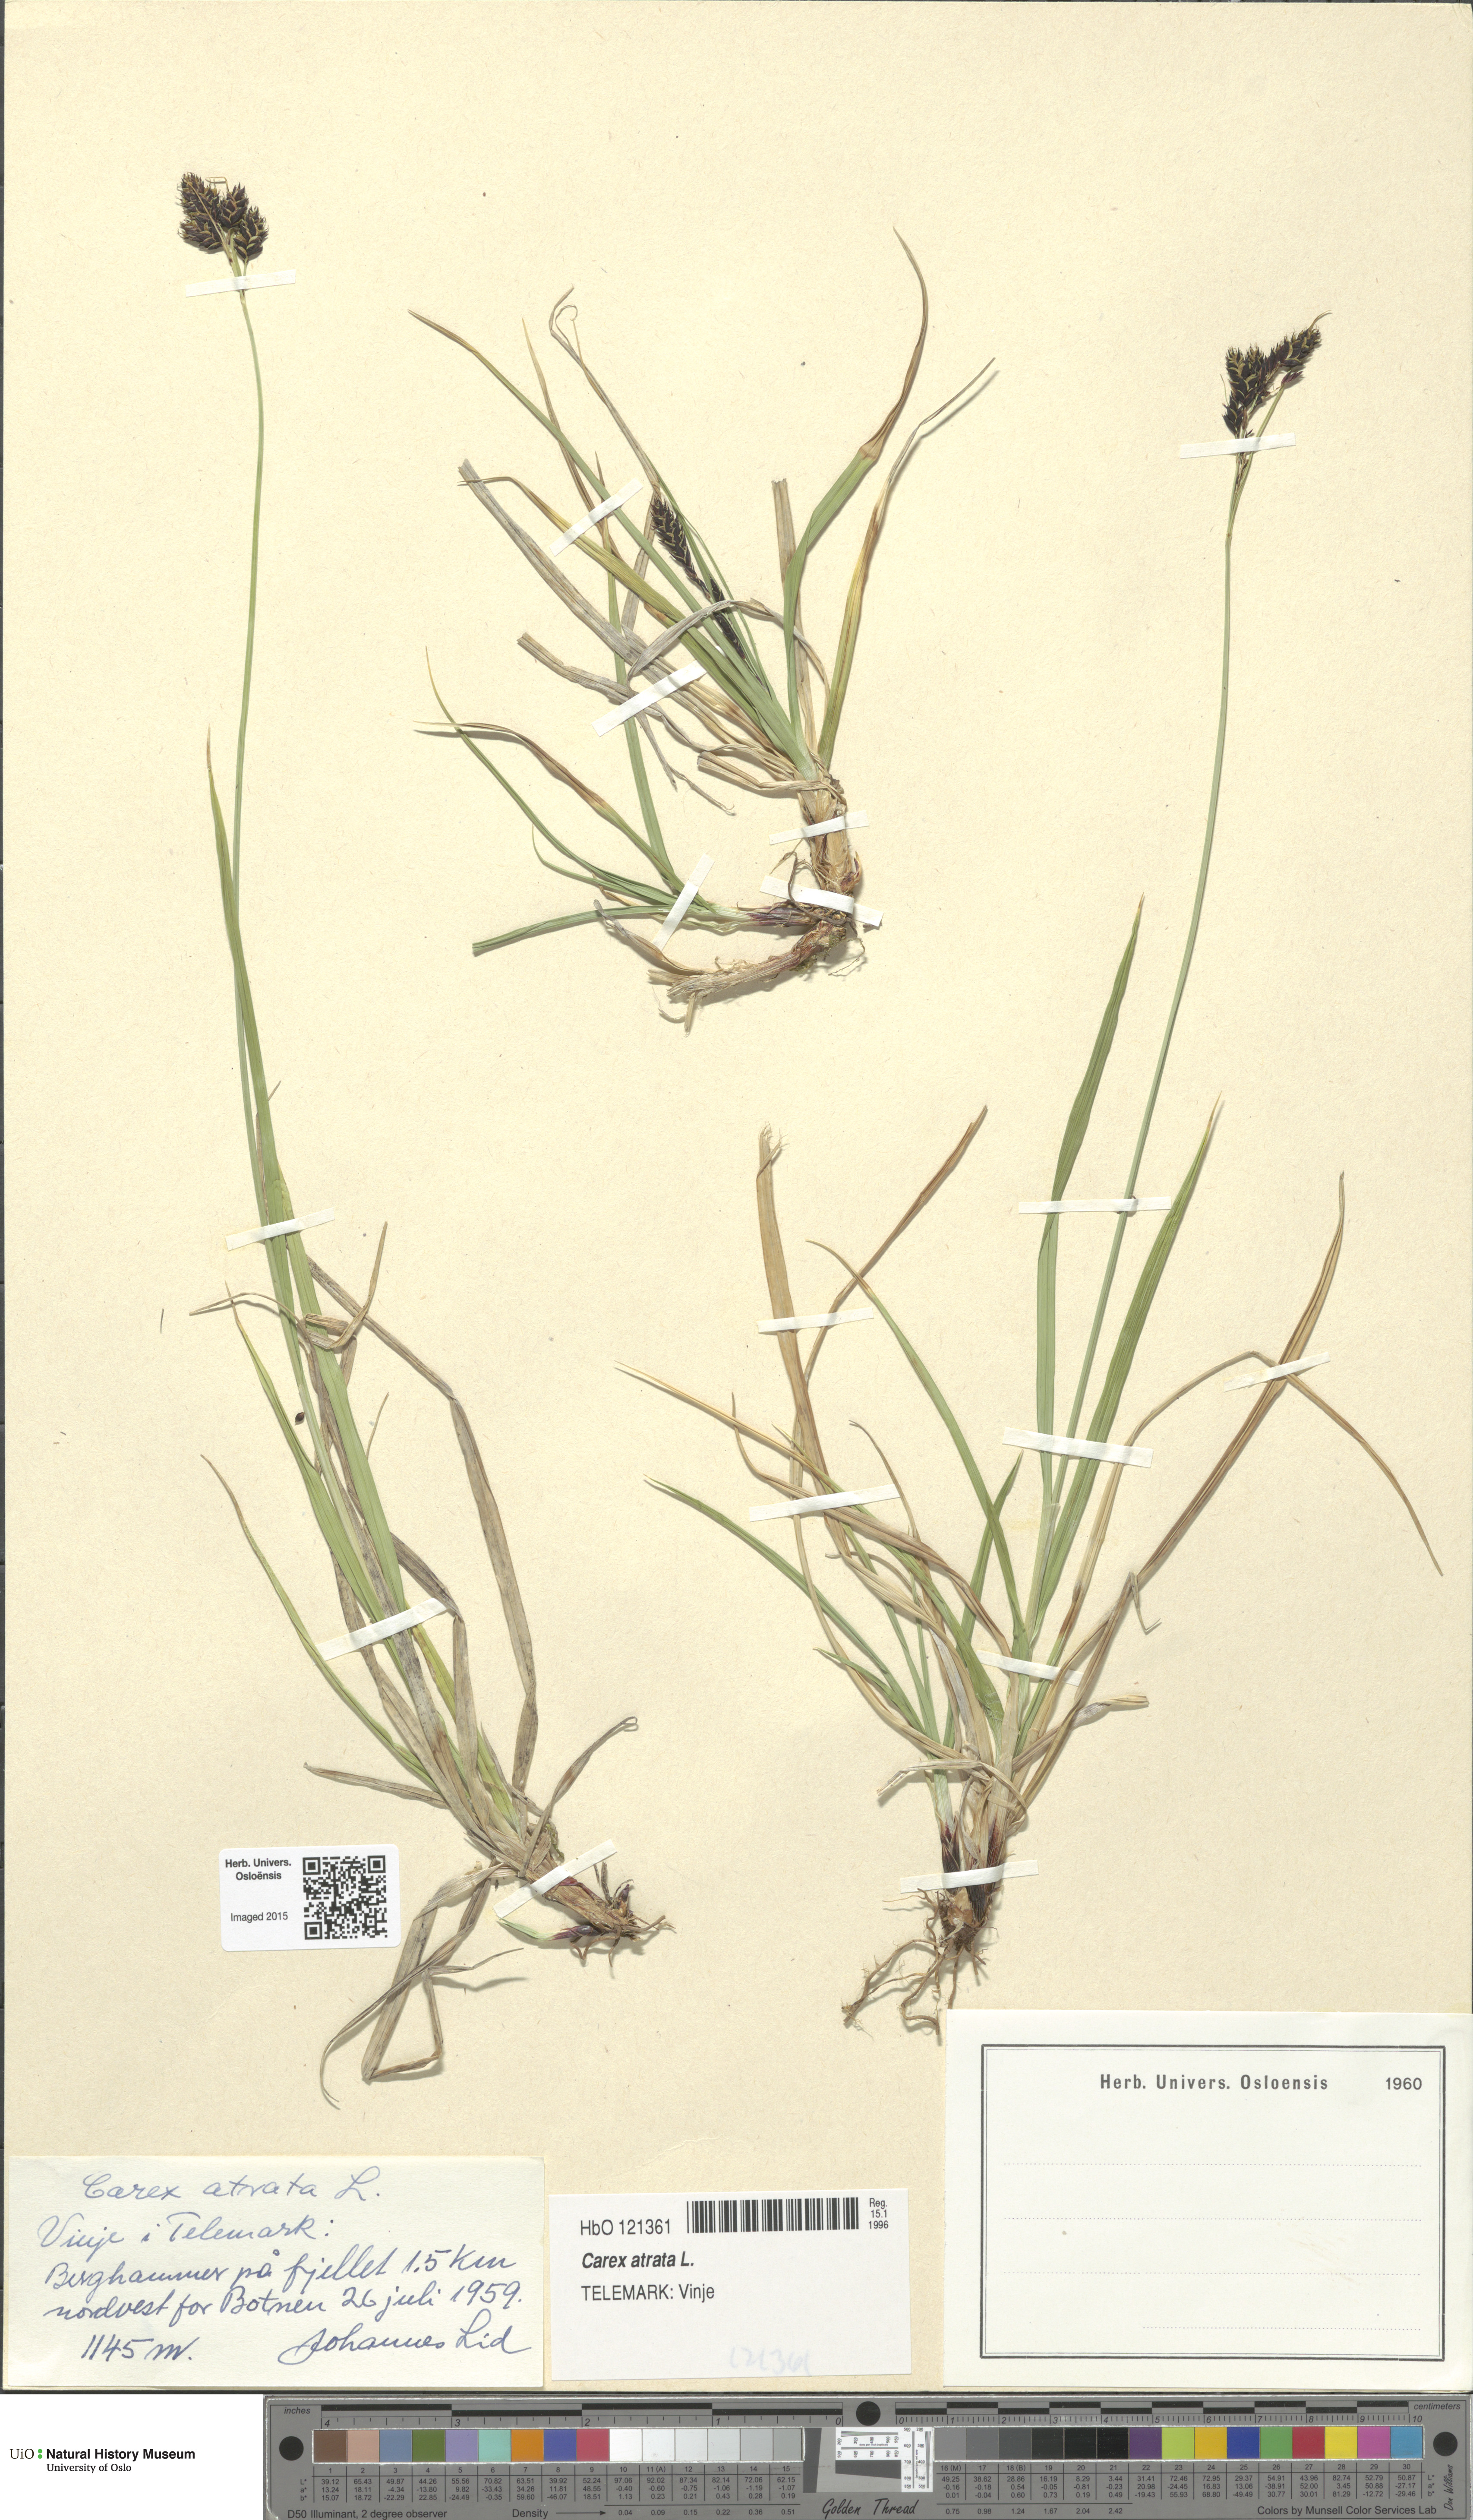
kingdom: Plantae
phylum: Tracheophyta
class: Liliopsida
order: Poales
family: Cyperaceae
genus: Carex
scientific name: Carex atrata
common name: Black alpine sedge
